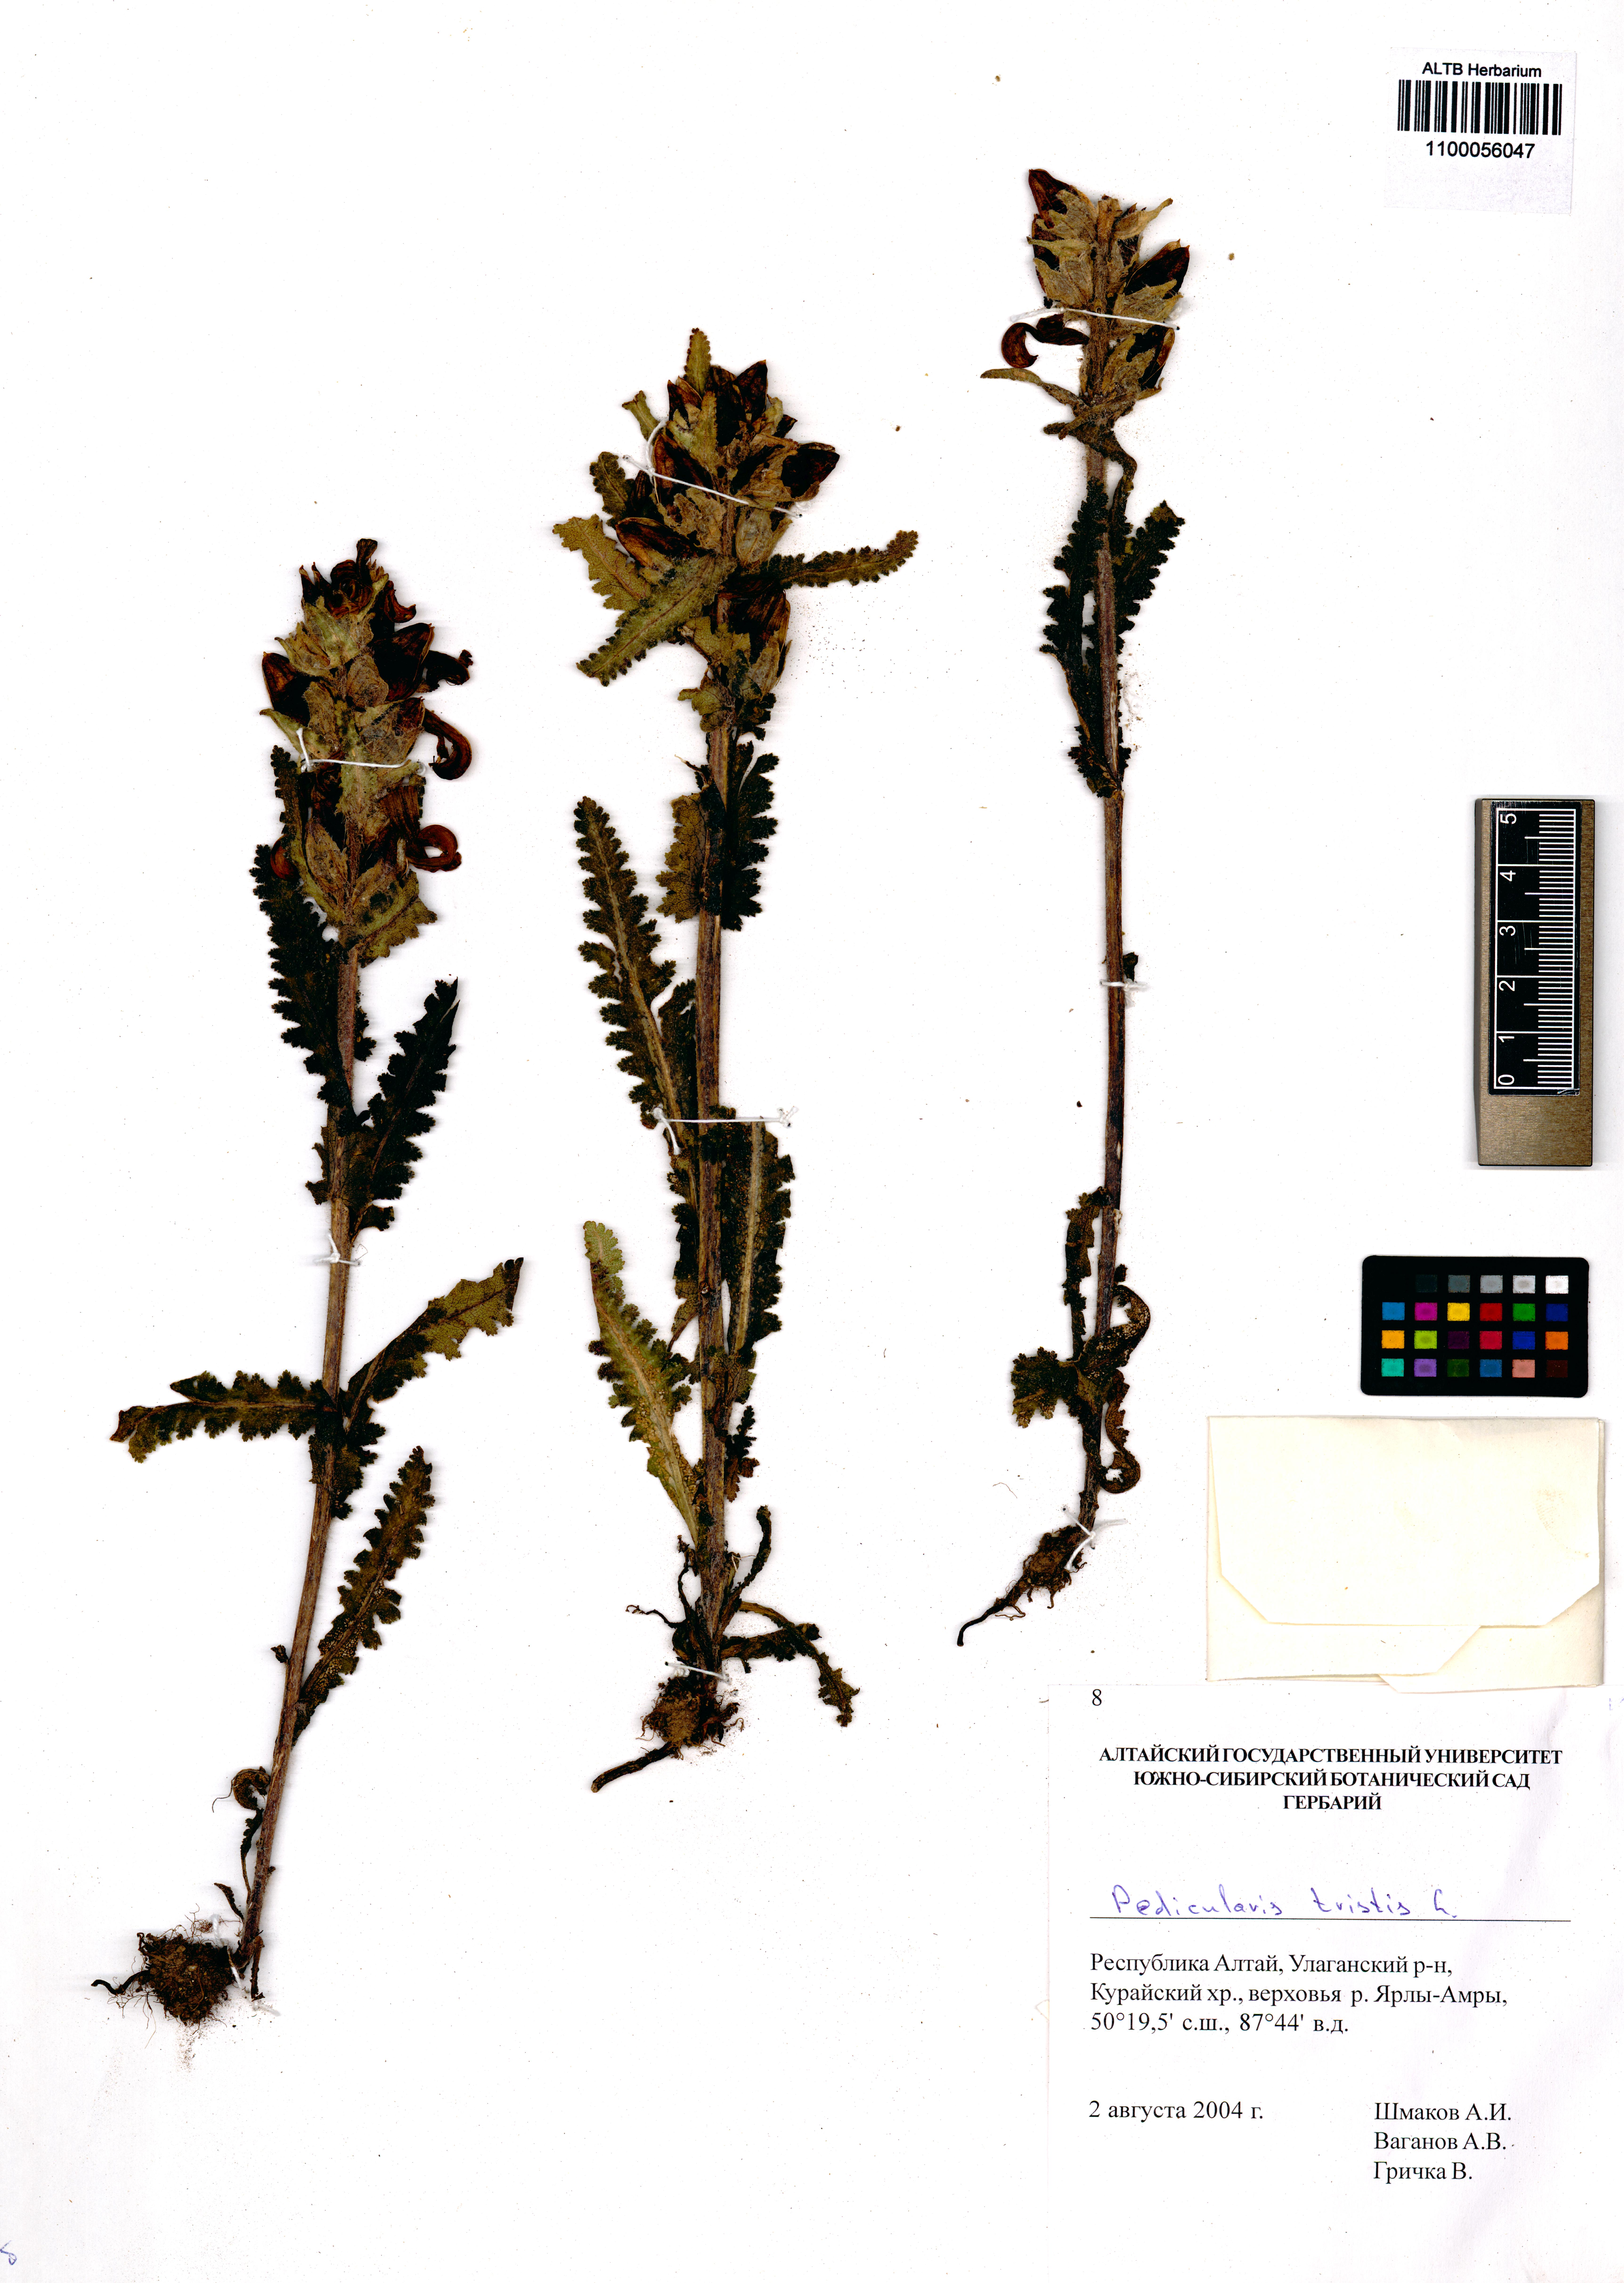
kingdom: Plantae
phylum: Tracheophyta
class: Magnoliopsida
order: Lamiales
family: Orobanchaceae
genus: Pedicularis
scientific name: Pedicularis tristis
